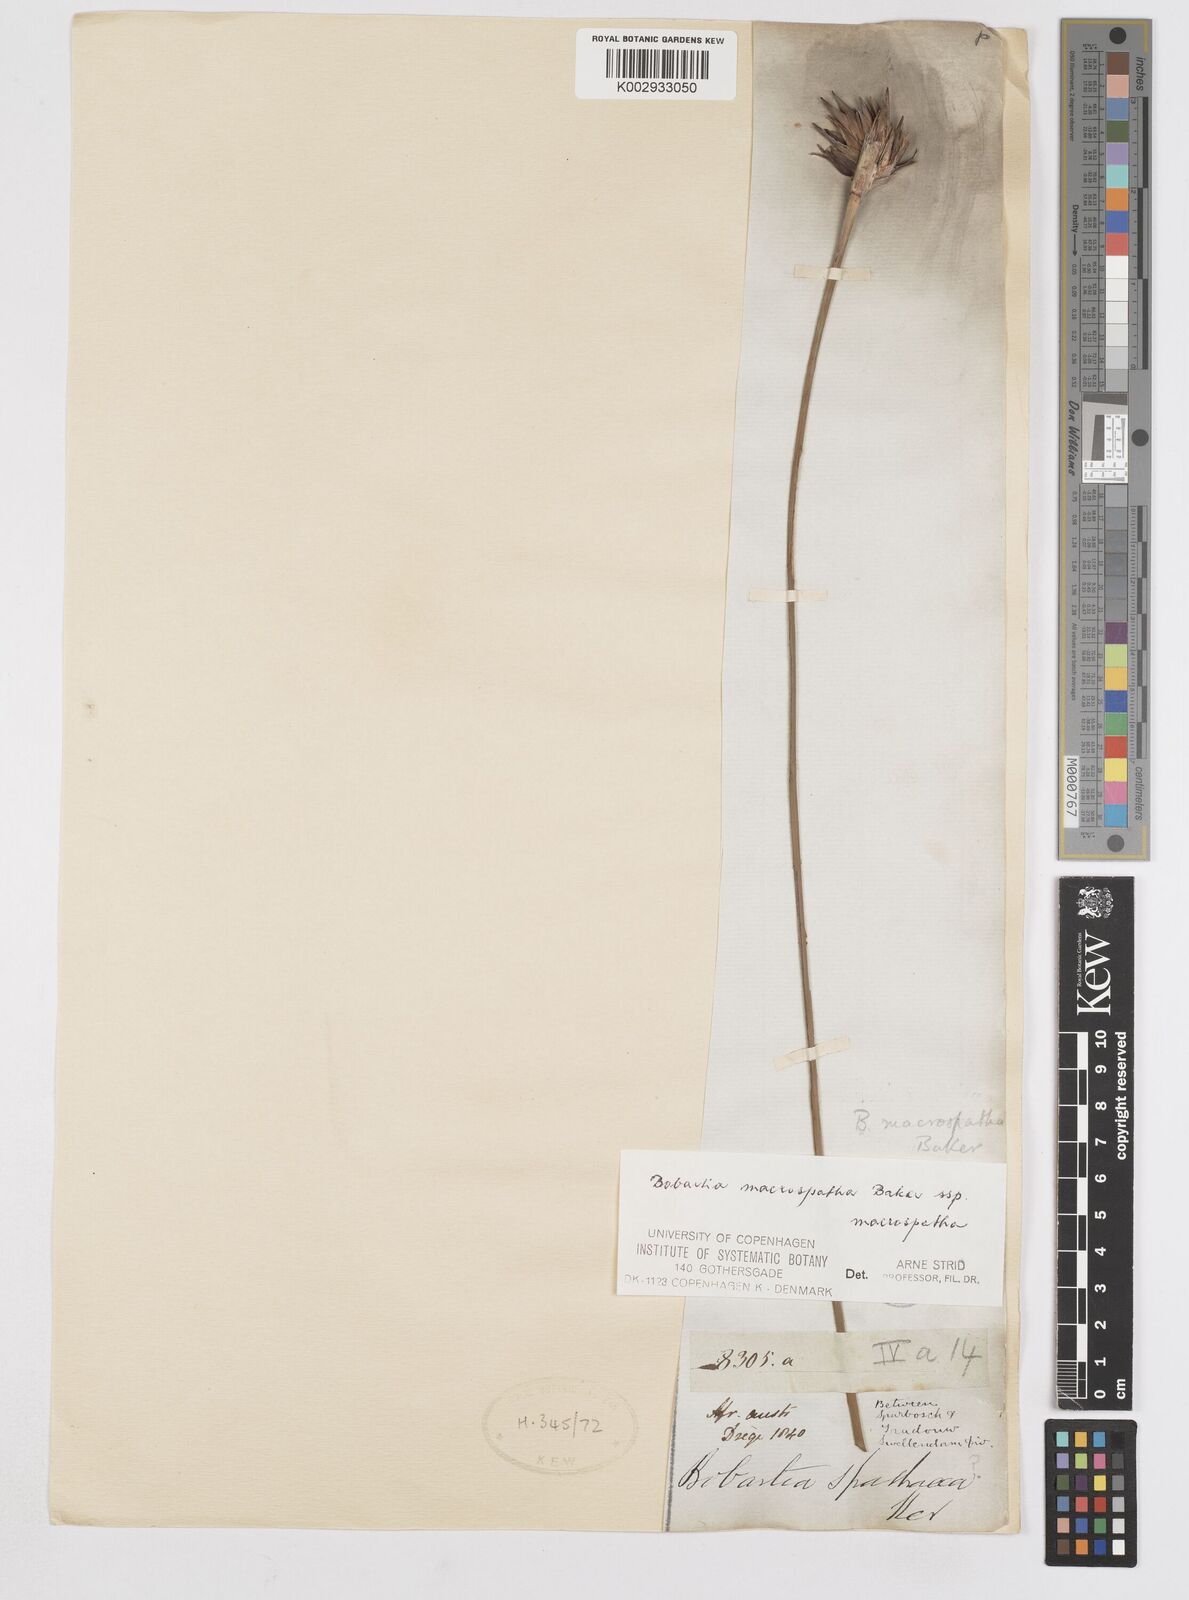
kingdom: Plantae
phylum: Tracheophyta
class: Liliopsida
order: Asparagales
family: Iridaceae
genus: Bobartia
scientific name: Bobartia macrospatha
